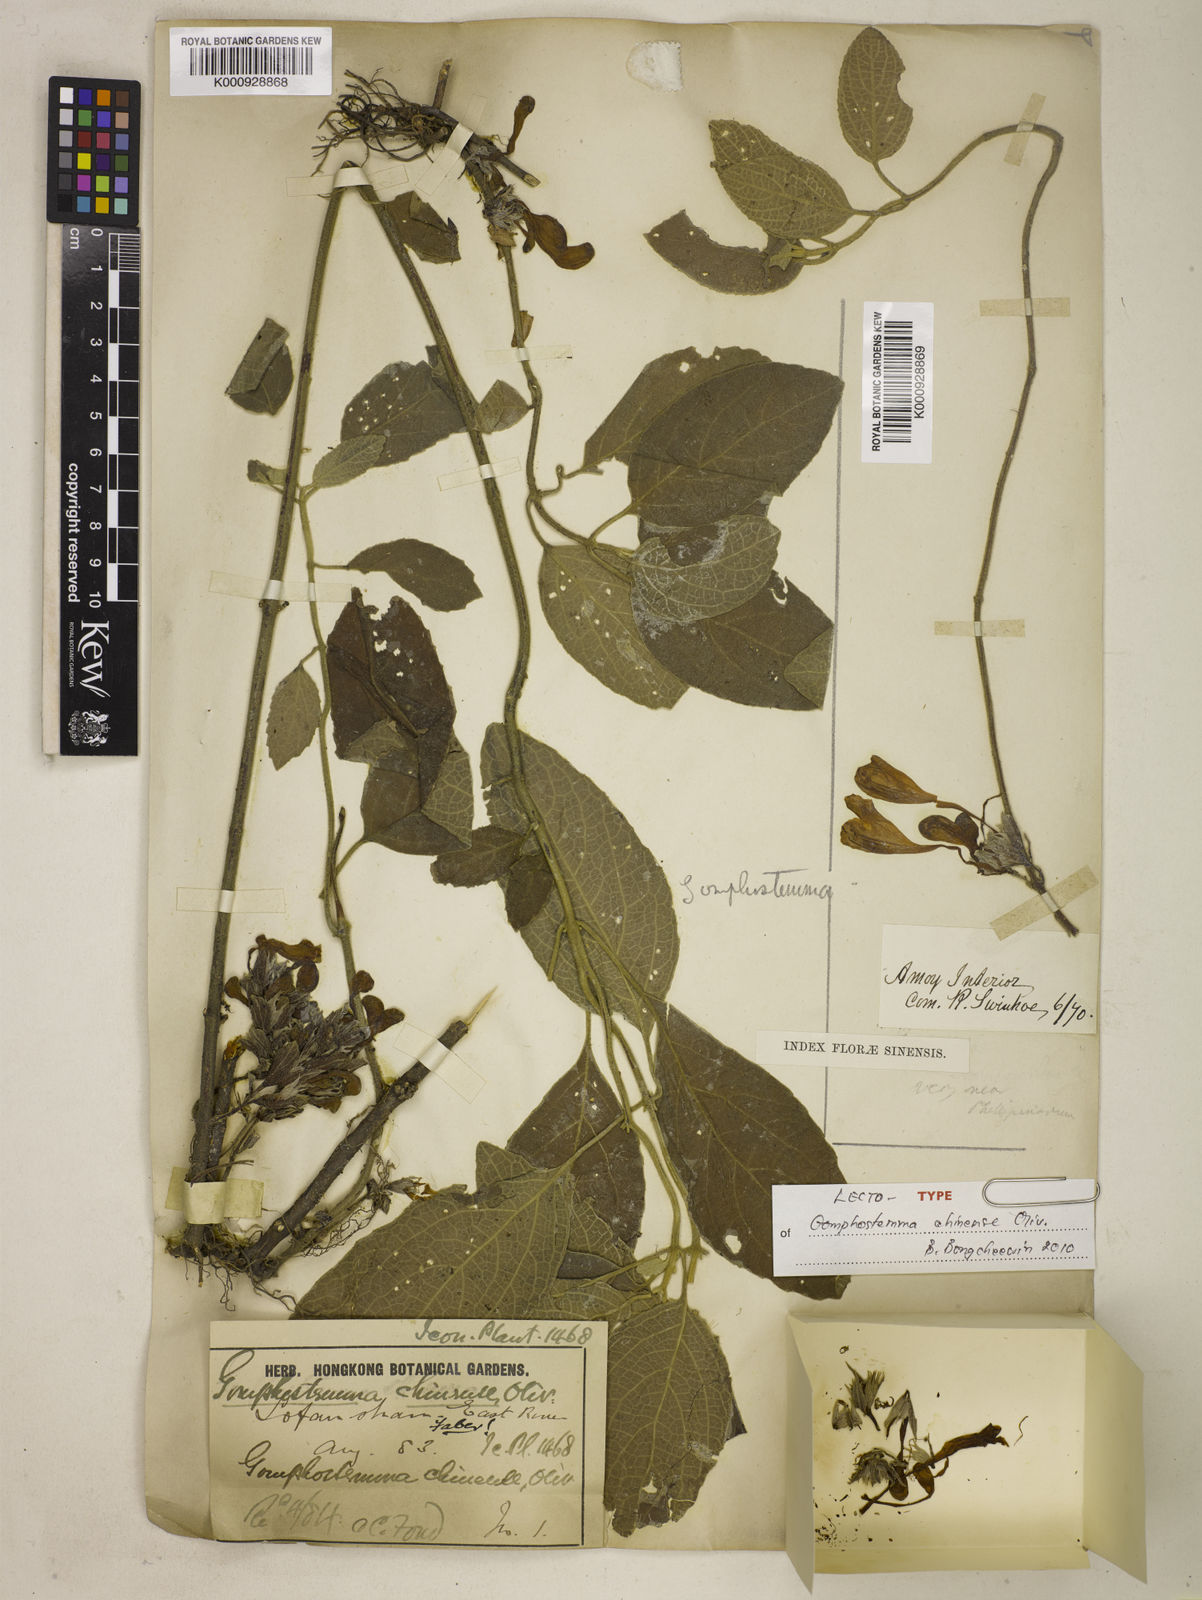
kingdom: Plantae
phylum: Tracheophyta
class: Magnoliopsida
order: Lamiales
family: Lamiaceae
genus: Gomphostemma
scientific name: Gomphostemma chinense
